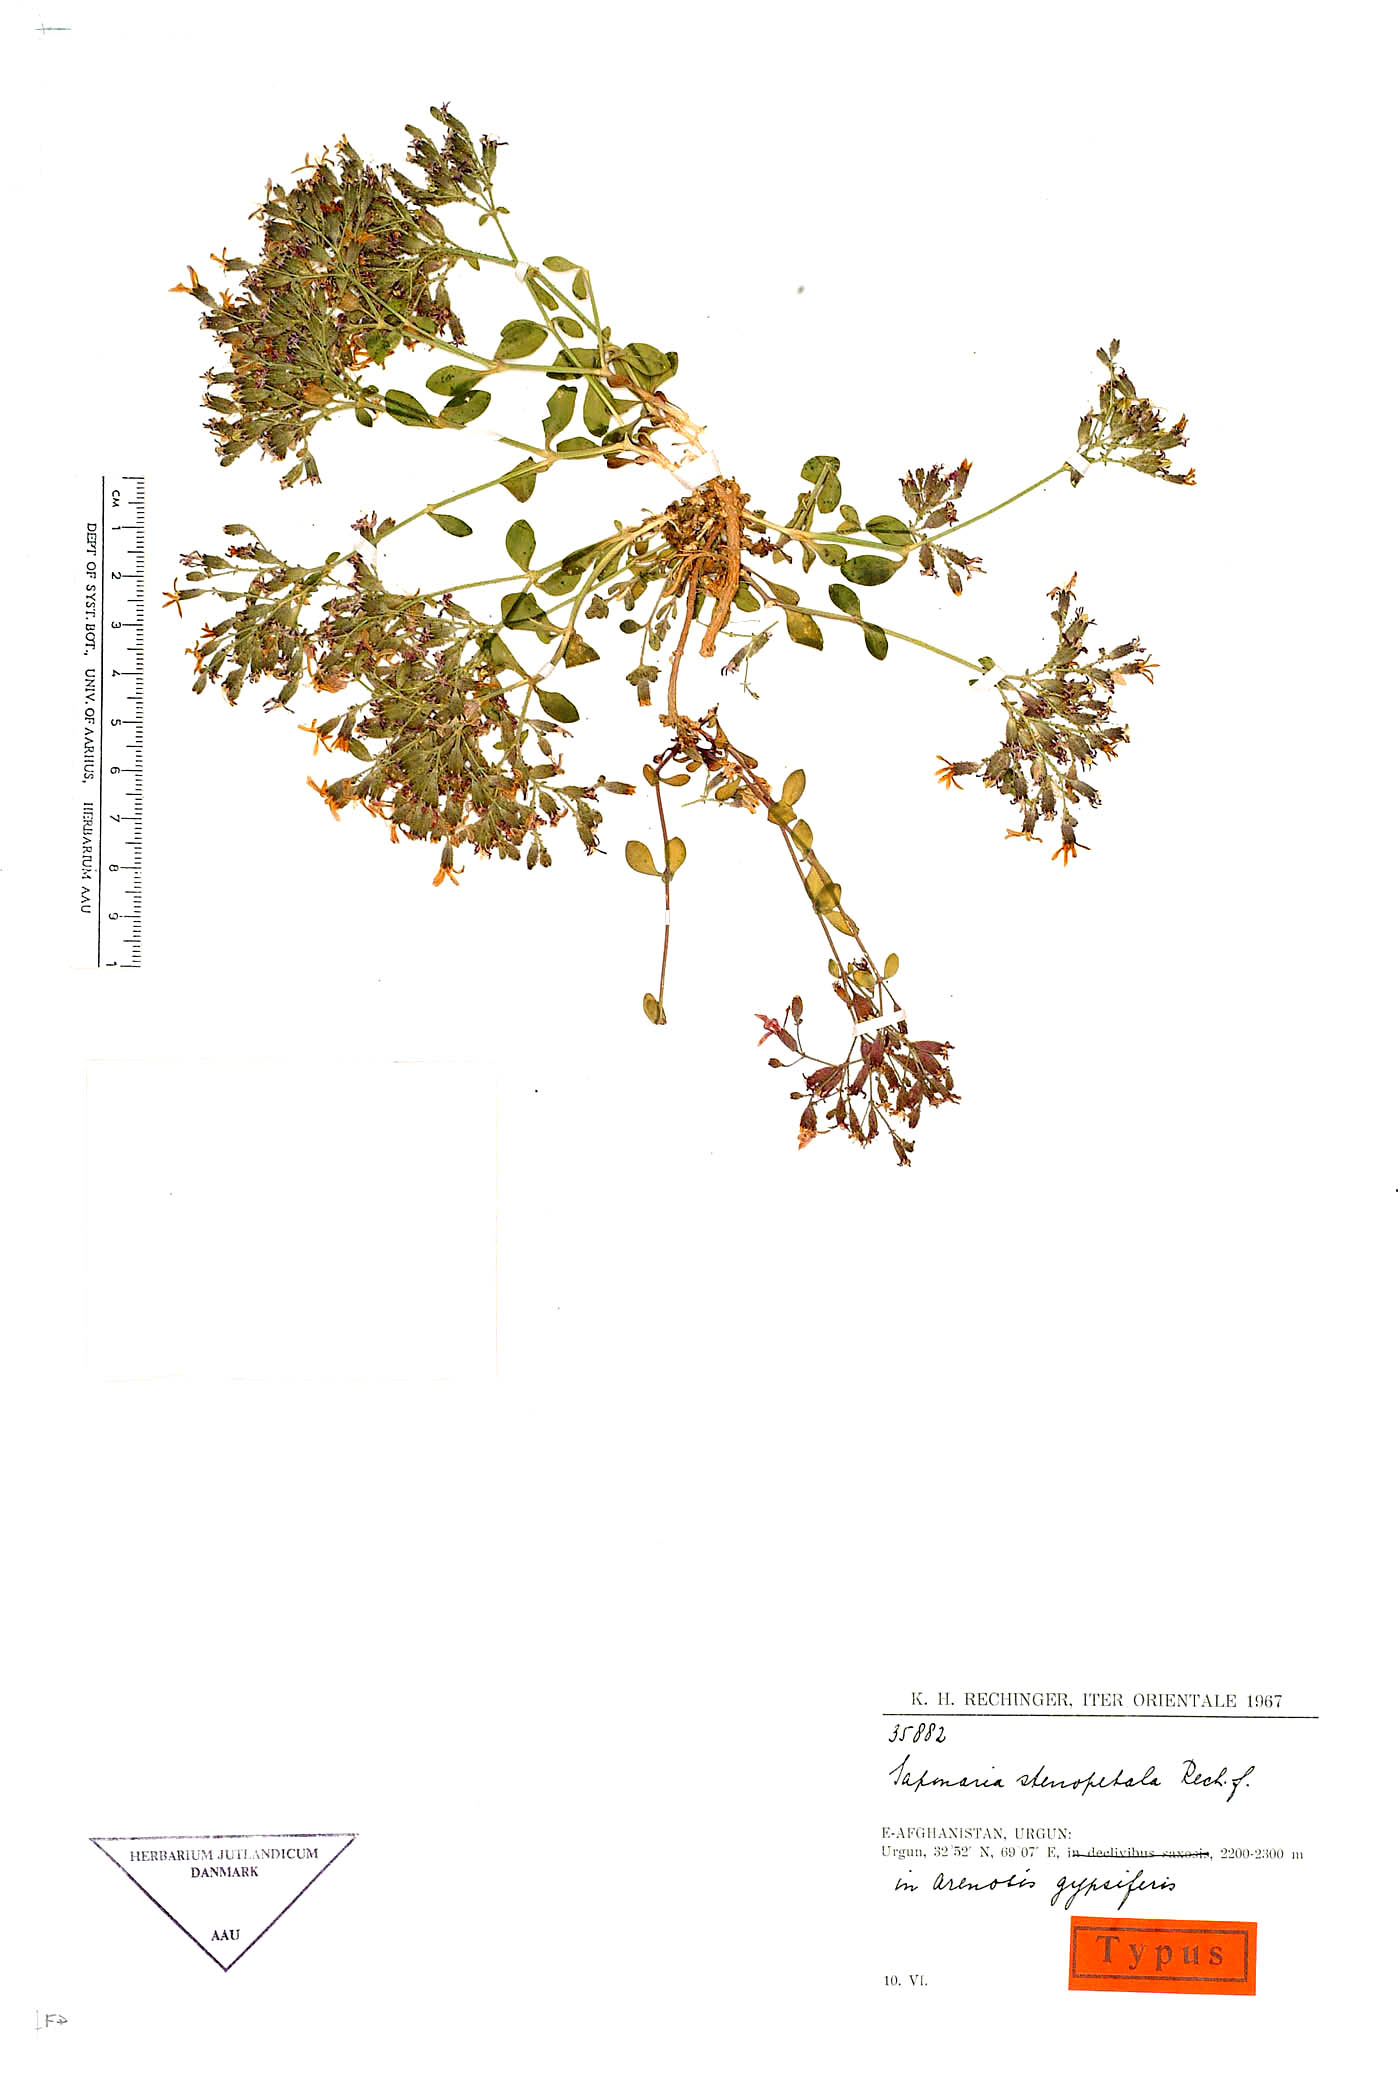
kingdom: Plantae
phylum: Tracheophyta
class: Magnoliopsida
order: Caryophyllales
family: Caryophyllaceae
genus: Saponaria
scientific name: Saponaria stenopetala
